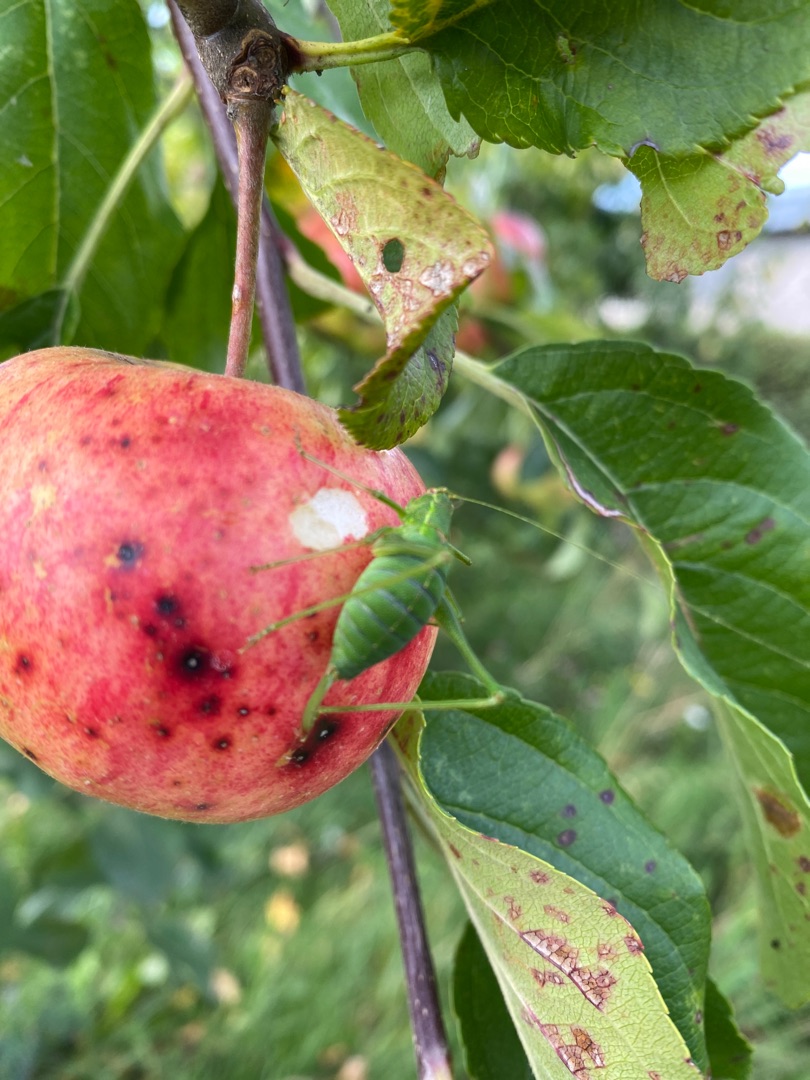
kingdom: Animalia
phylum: Arthropoda
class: Insecta
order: Orthoptera
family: Tettigoniidae
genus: Leptophyes
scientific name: Leptophyes punctatissima
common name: Krumknivgræshoppe
